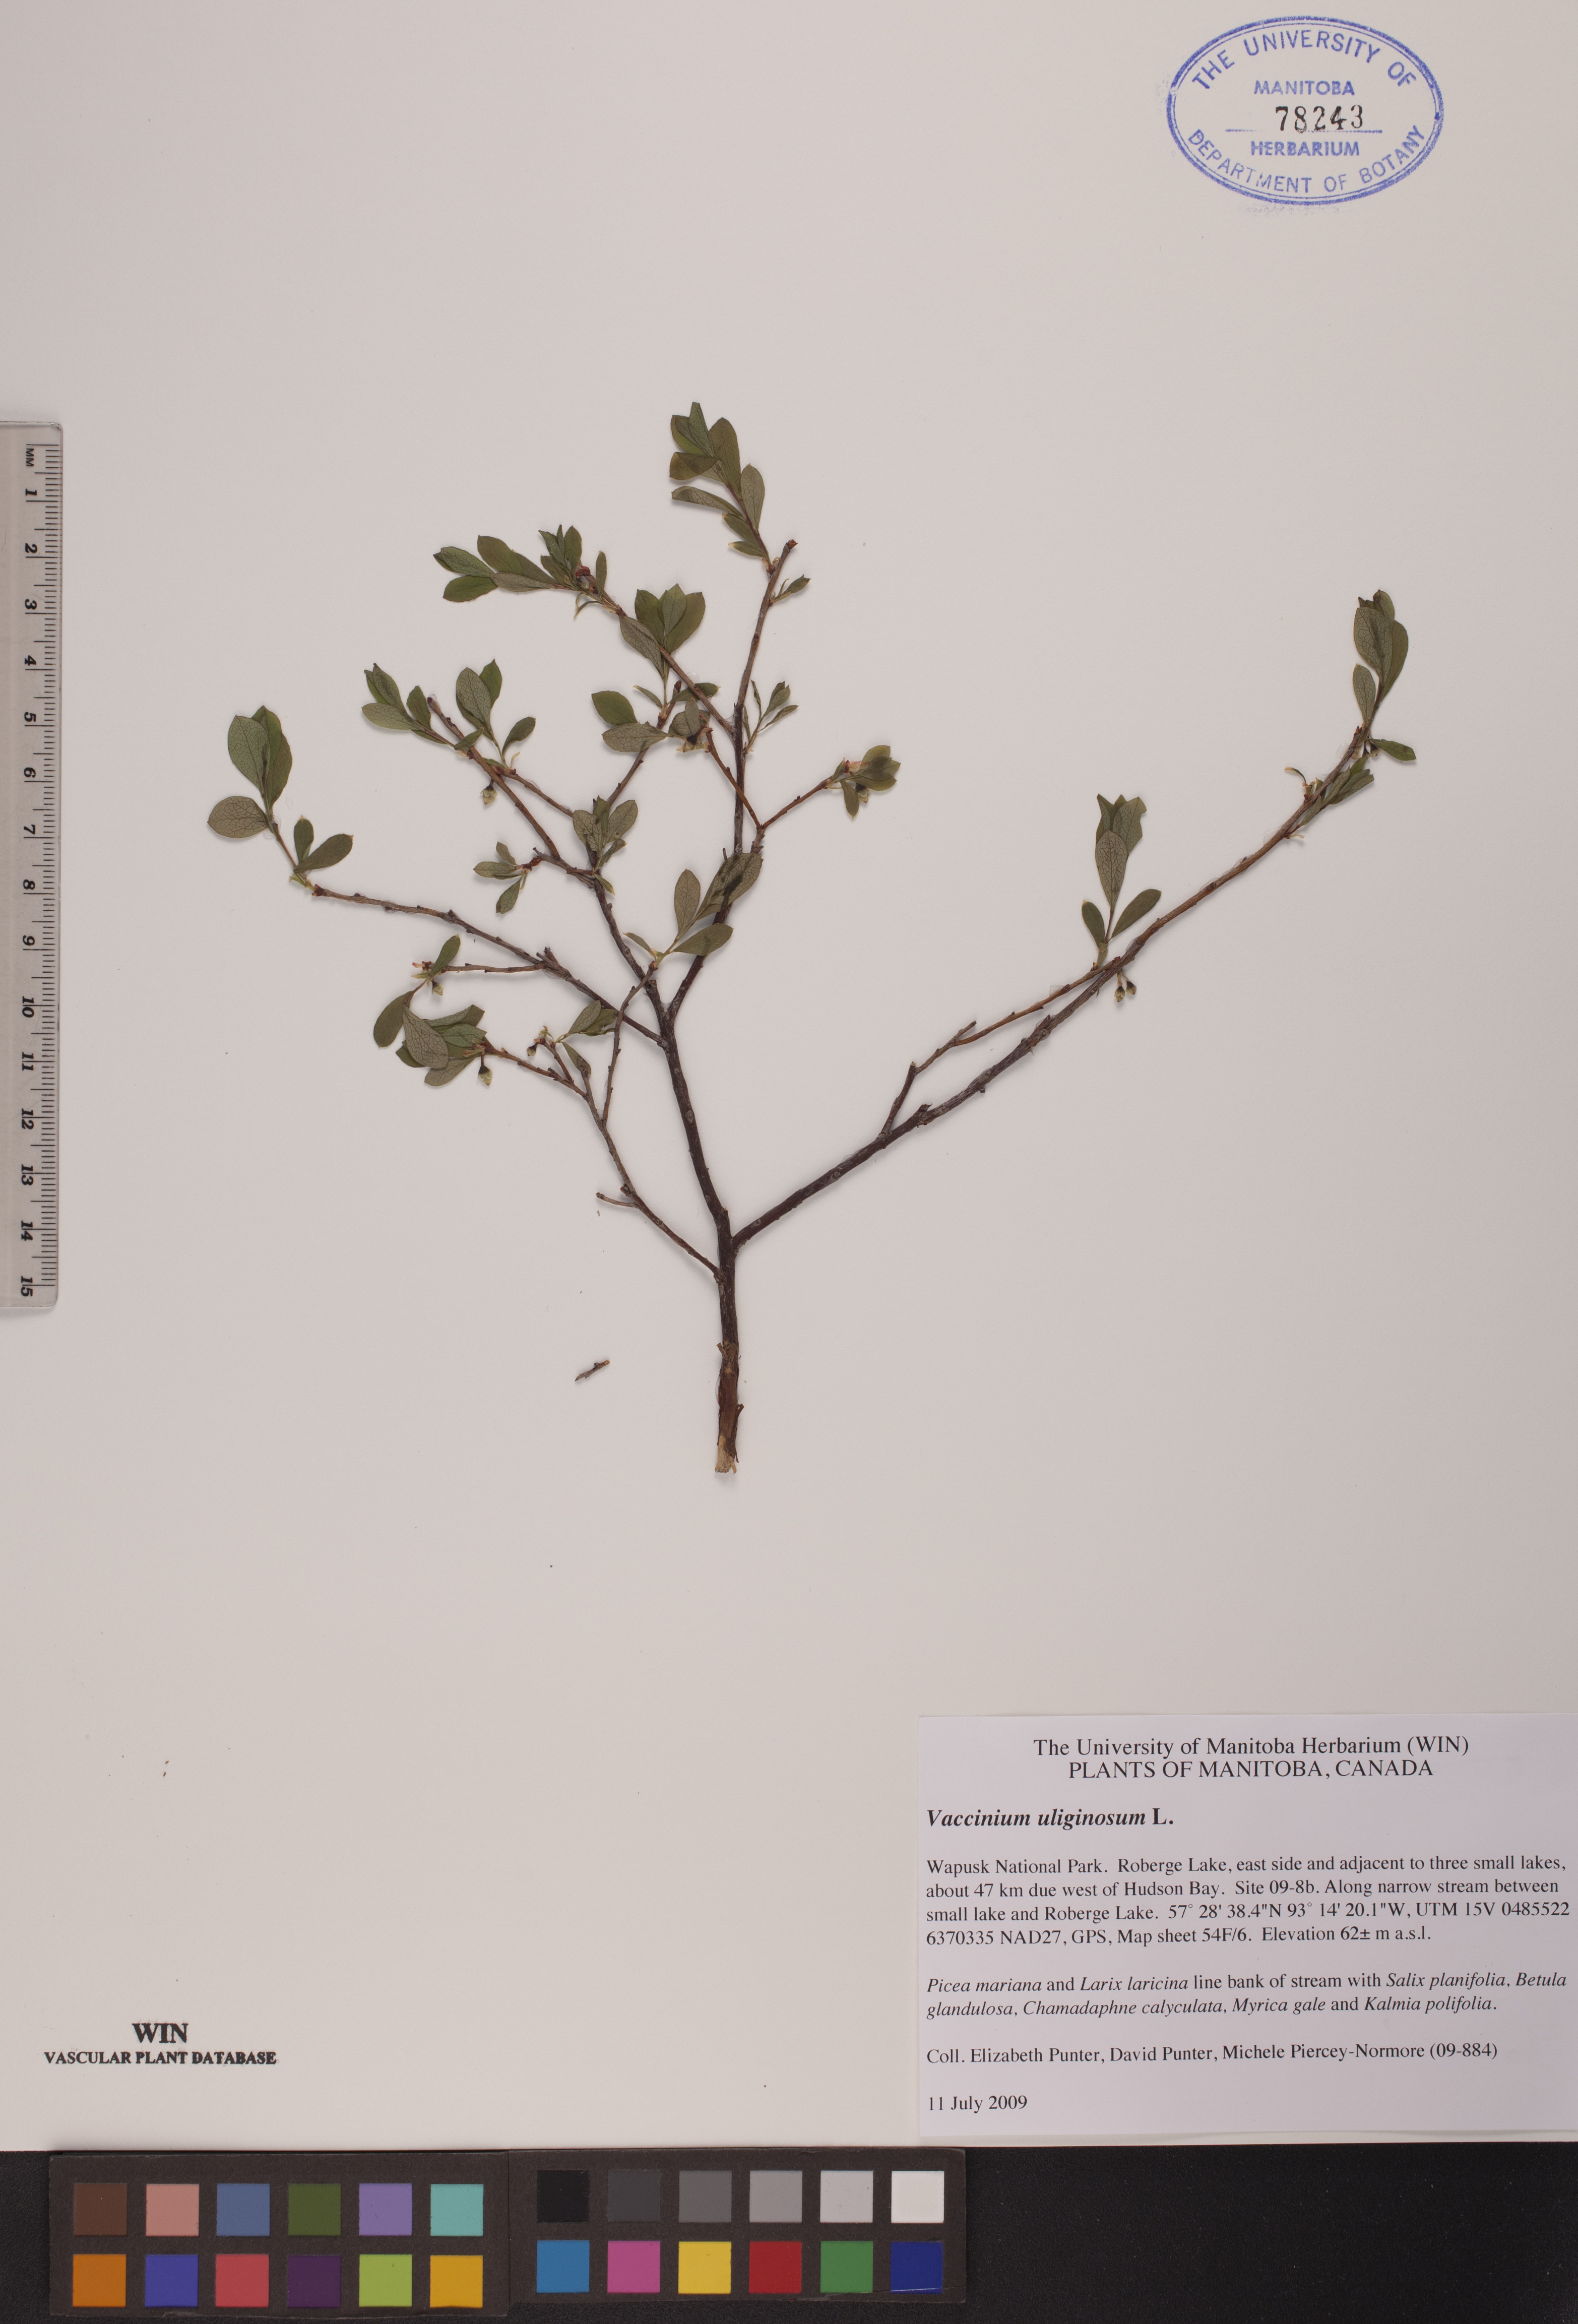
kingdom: Plantae
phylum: Tracheophyta
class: Magnoliopsida
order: Ericales
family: Ericaceae
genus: Vaccinium
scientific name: Vaccinium uliginosum
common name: Bog bilberry
